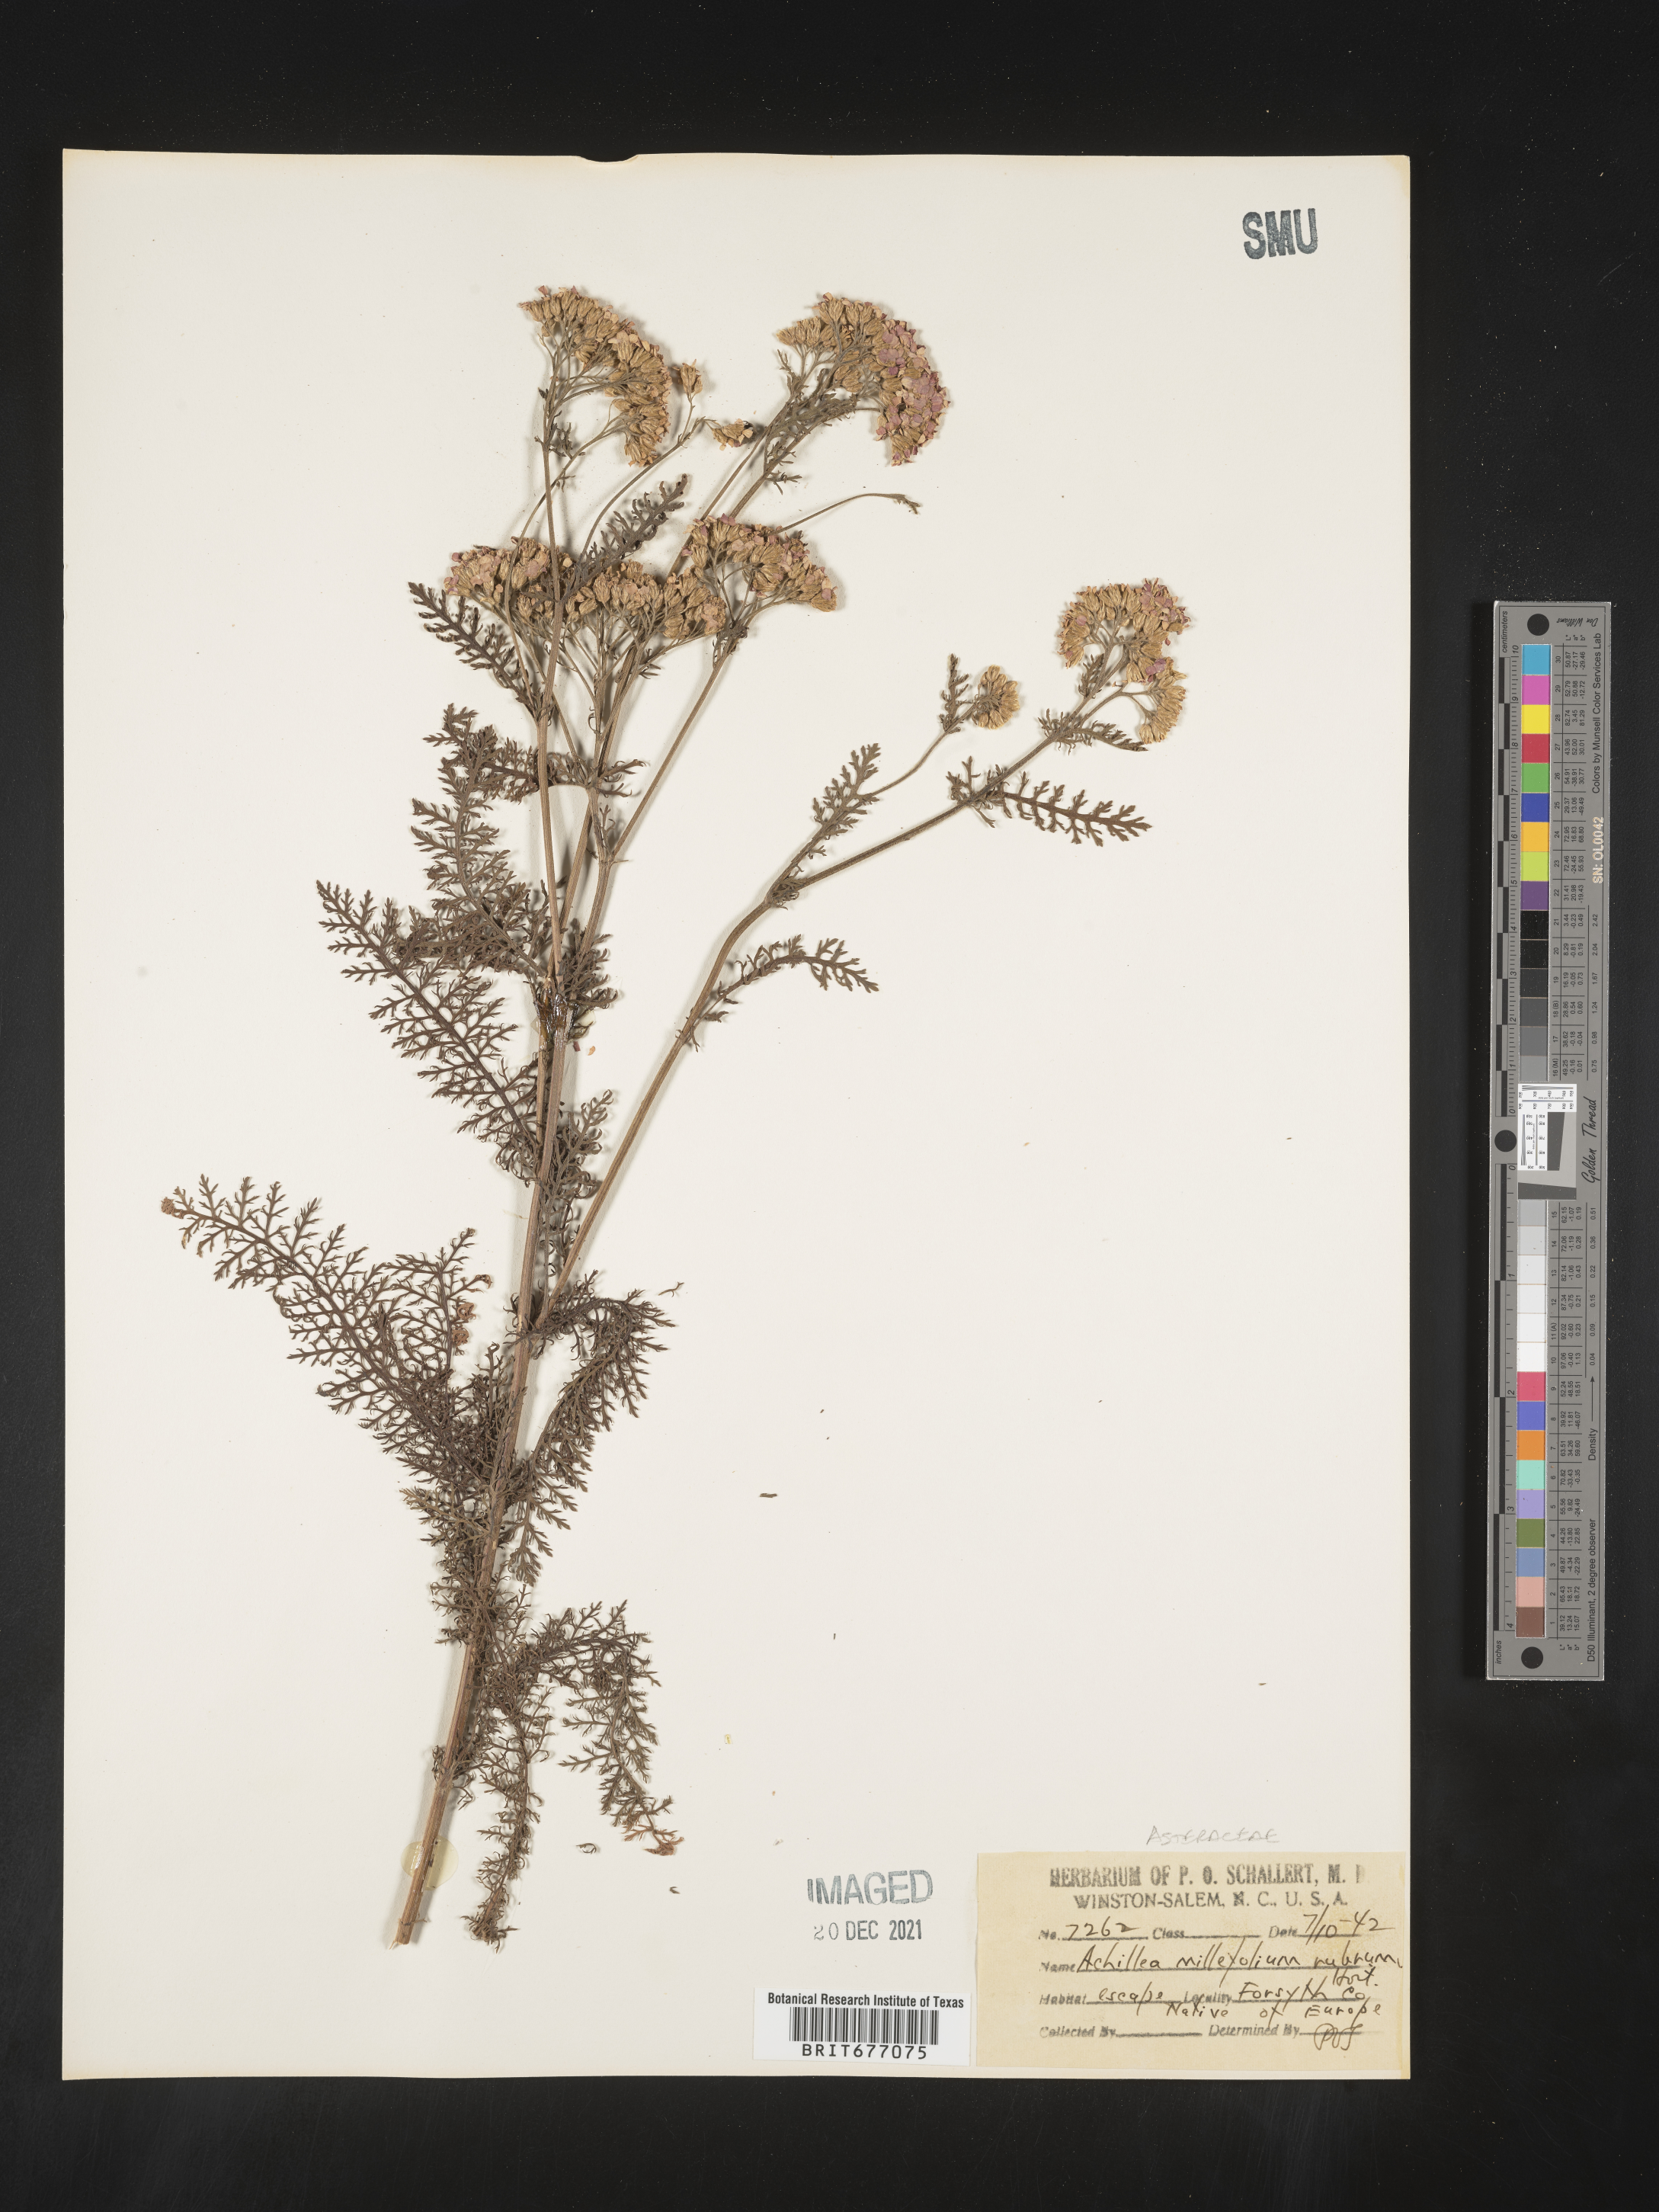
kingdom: Plantae
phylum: Tracheophyta
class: Magnoliopsida
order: Asterales
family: Asteraceae
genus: Achillea
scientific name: Achillea millefolium
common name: Yarrow
